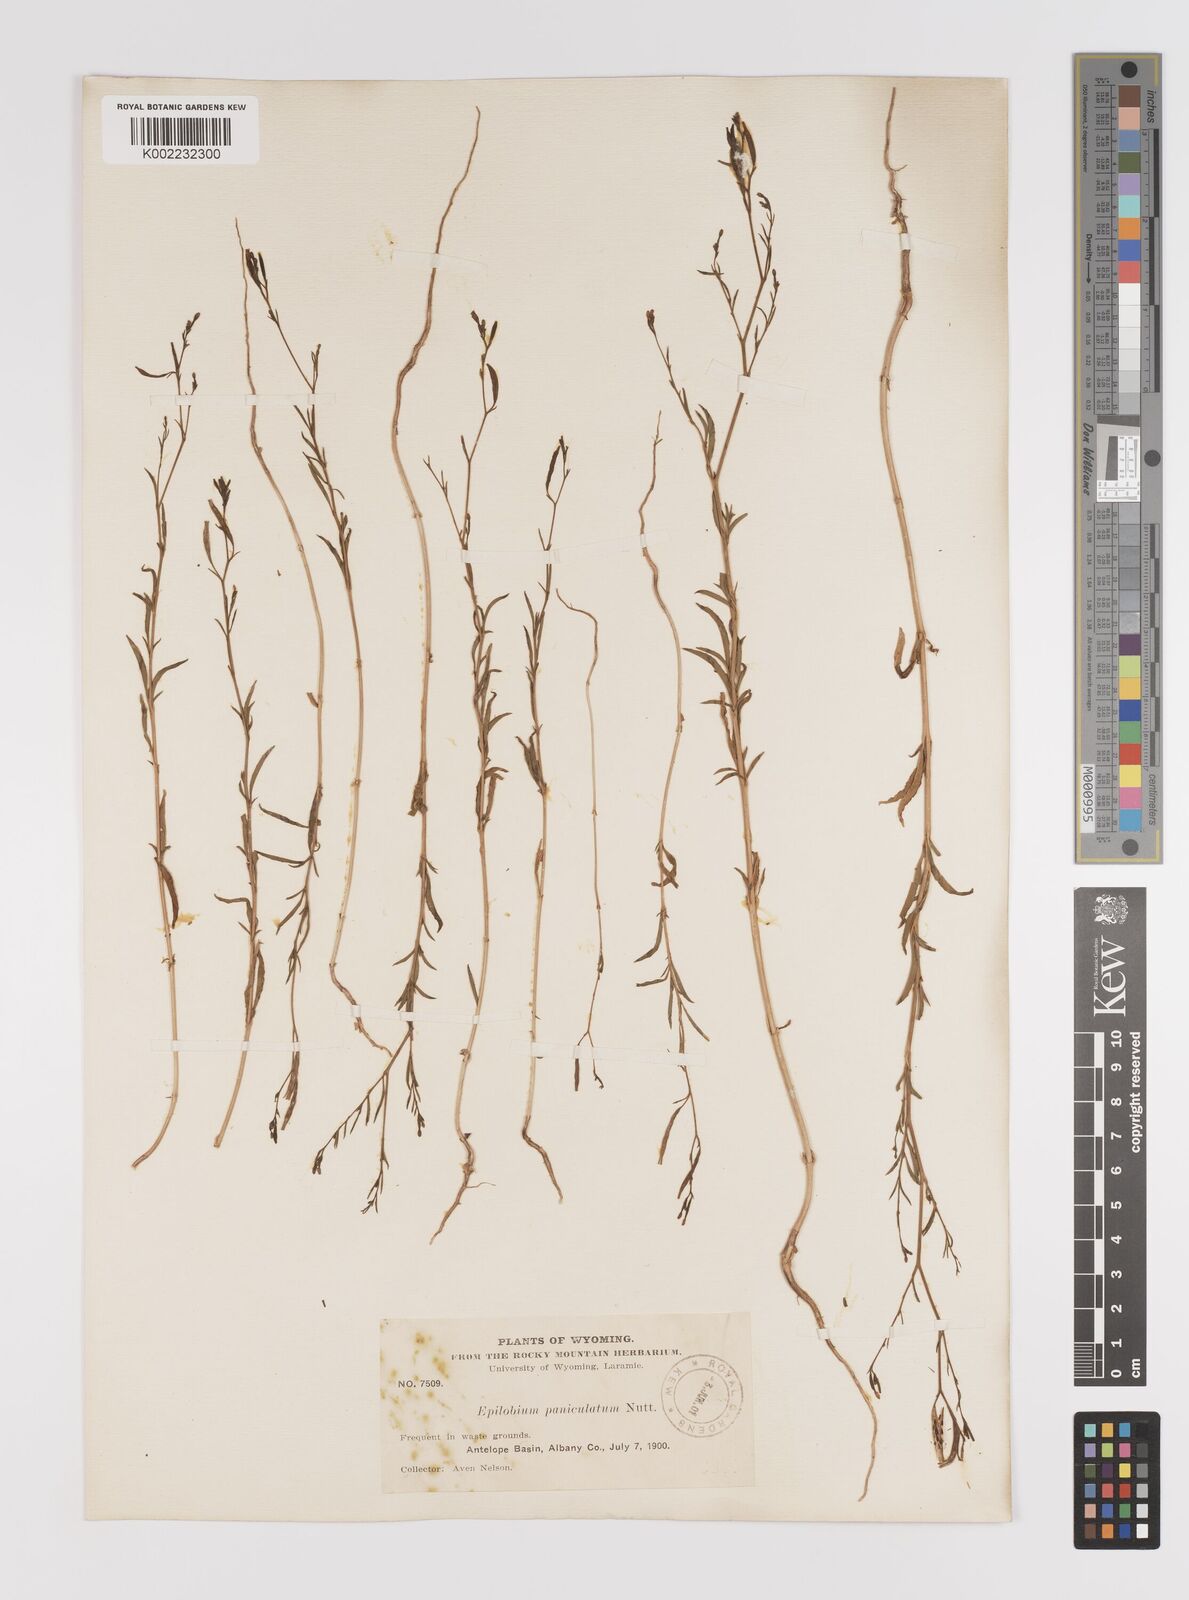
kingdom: Plantae
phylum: Tracheophyta
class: Magnoliopsida
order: Myrtales
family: Onagraceae
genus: Epilobium
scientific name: Epilobium
